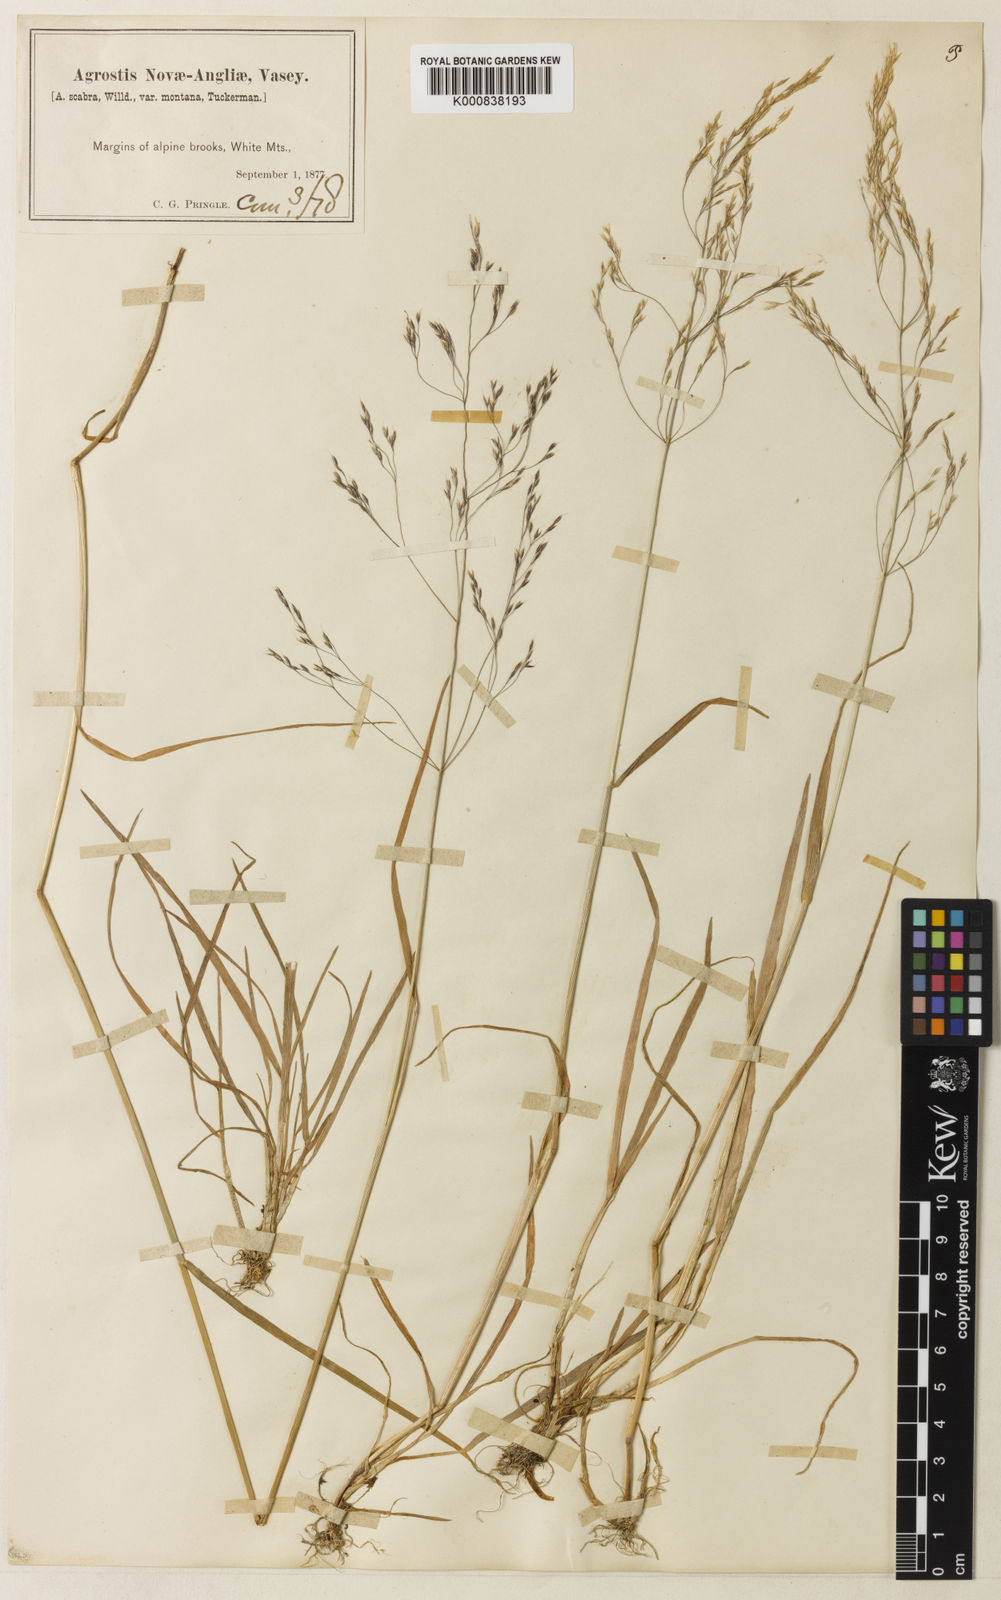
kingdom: Plantae
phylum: Tracheophyta
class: Liliopsida
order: Poales
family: Poaceae
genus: Agrostis
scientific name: Agrostis mertensii
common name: Northern bent
